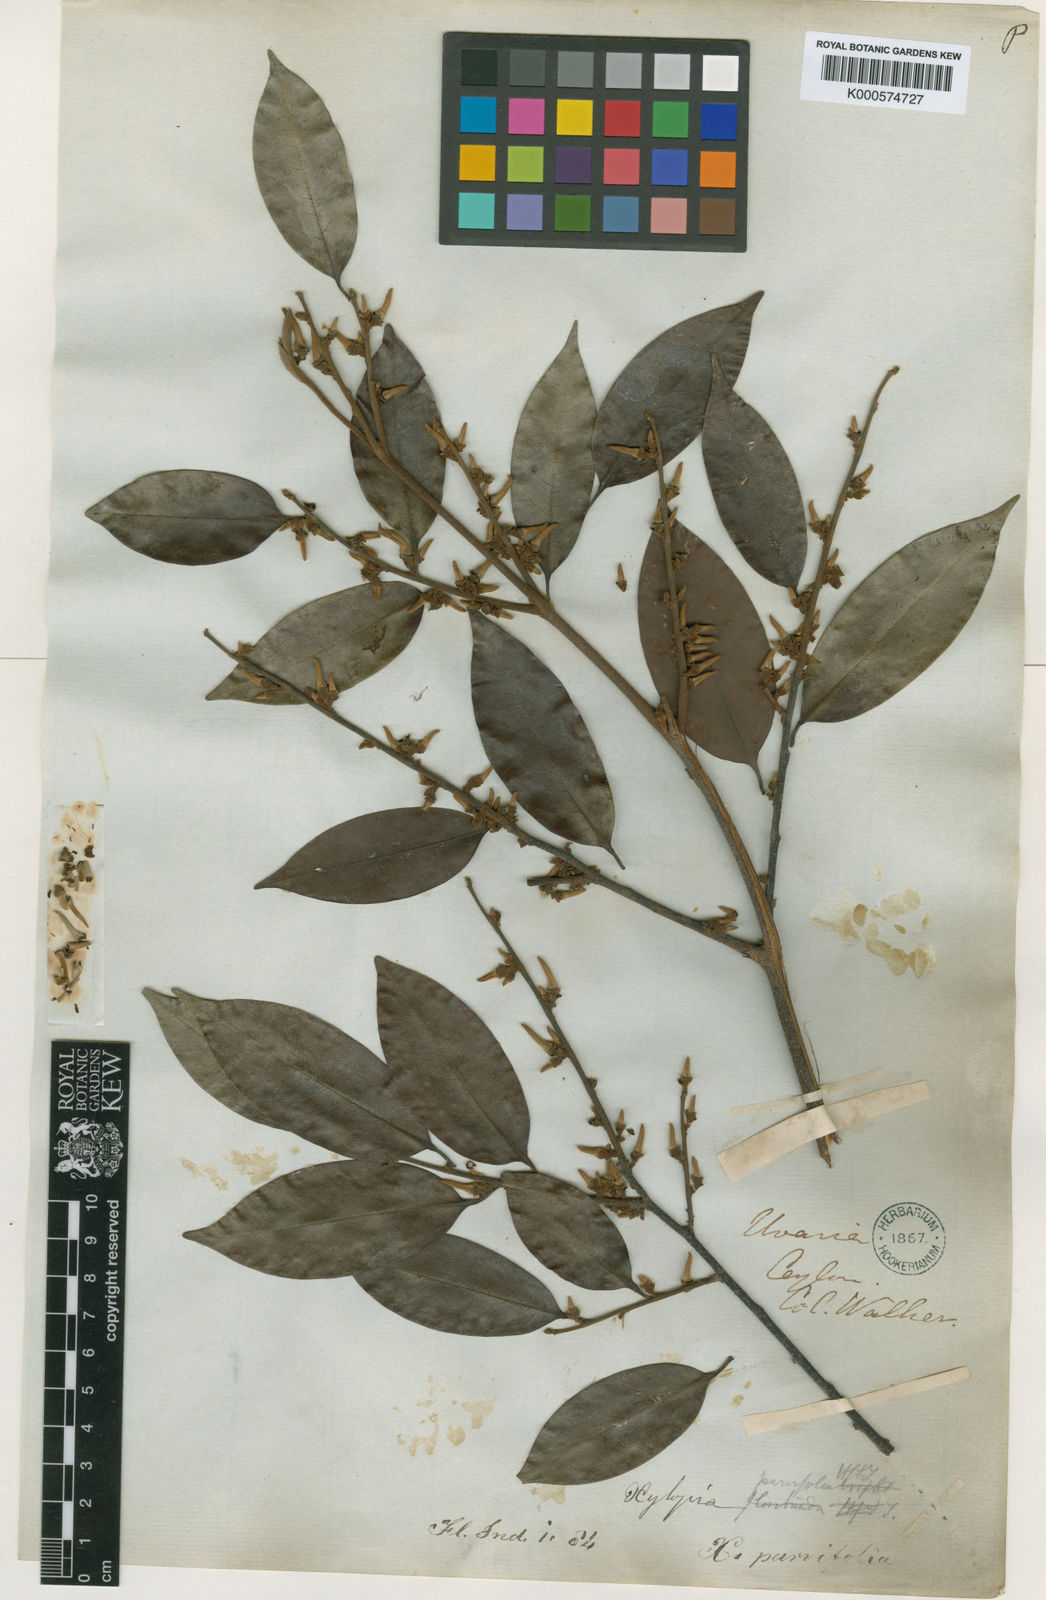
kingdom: Plantae
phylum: Tracheophyta
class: Magnoliopsida
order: Magnoliales
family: Annonaceae
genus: Xylopia
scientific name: Xylopia
